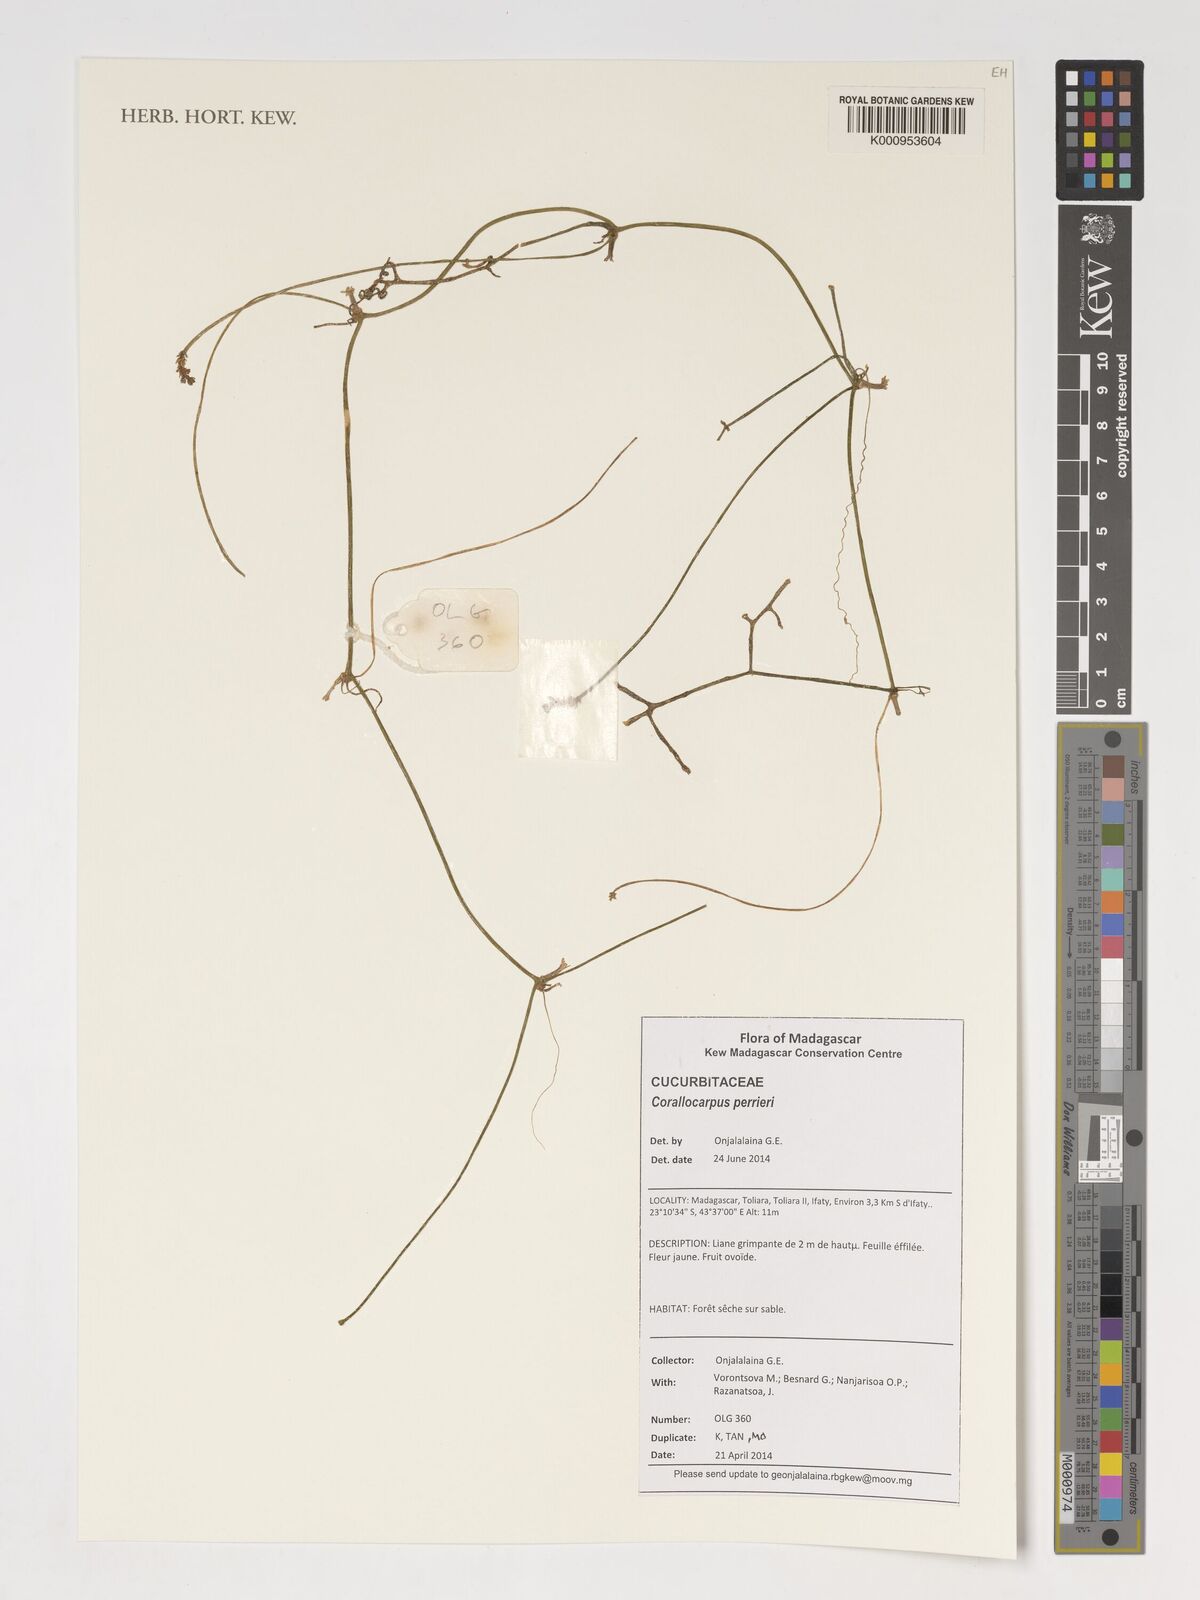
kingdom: Plantae
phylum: Tracheophyta
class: Magnoliopsida
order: Cucurbitales
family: Cucurbitaceae
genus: Corallocarpus
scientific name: Corallocarpus perrieri
